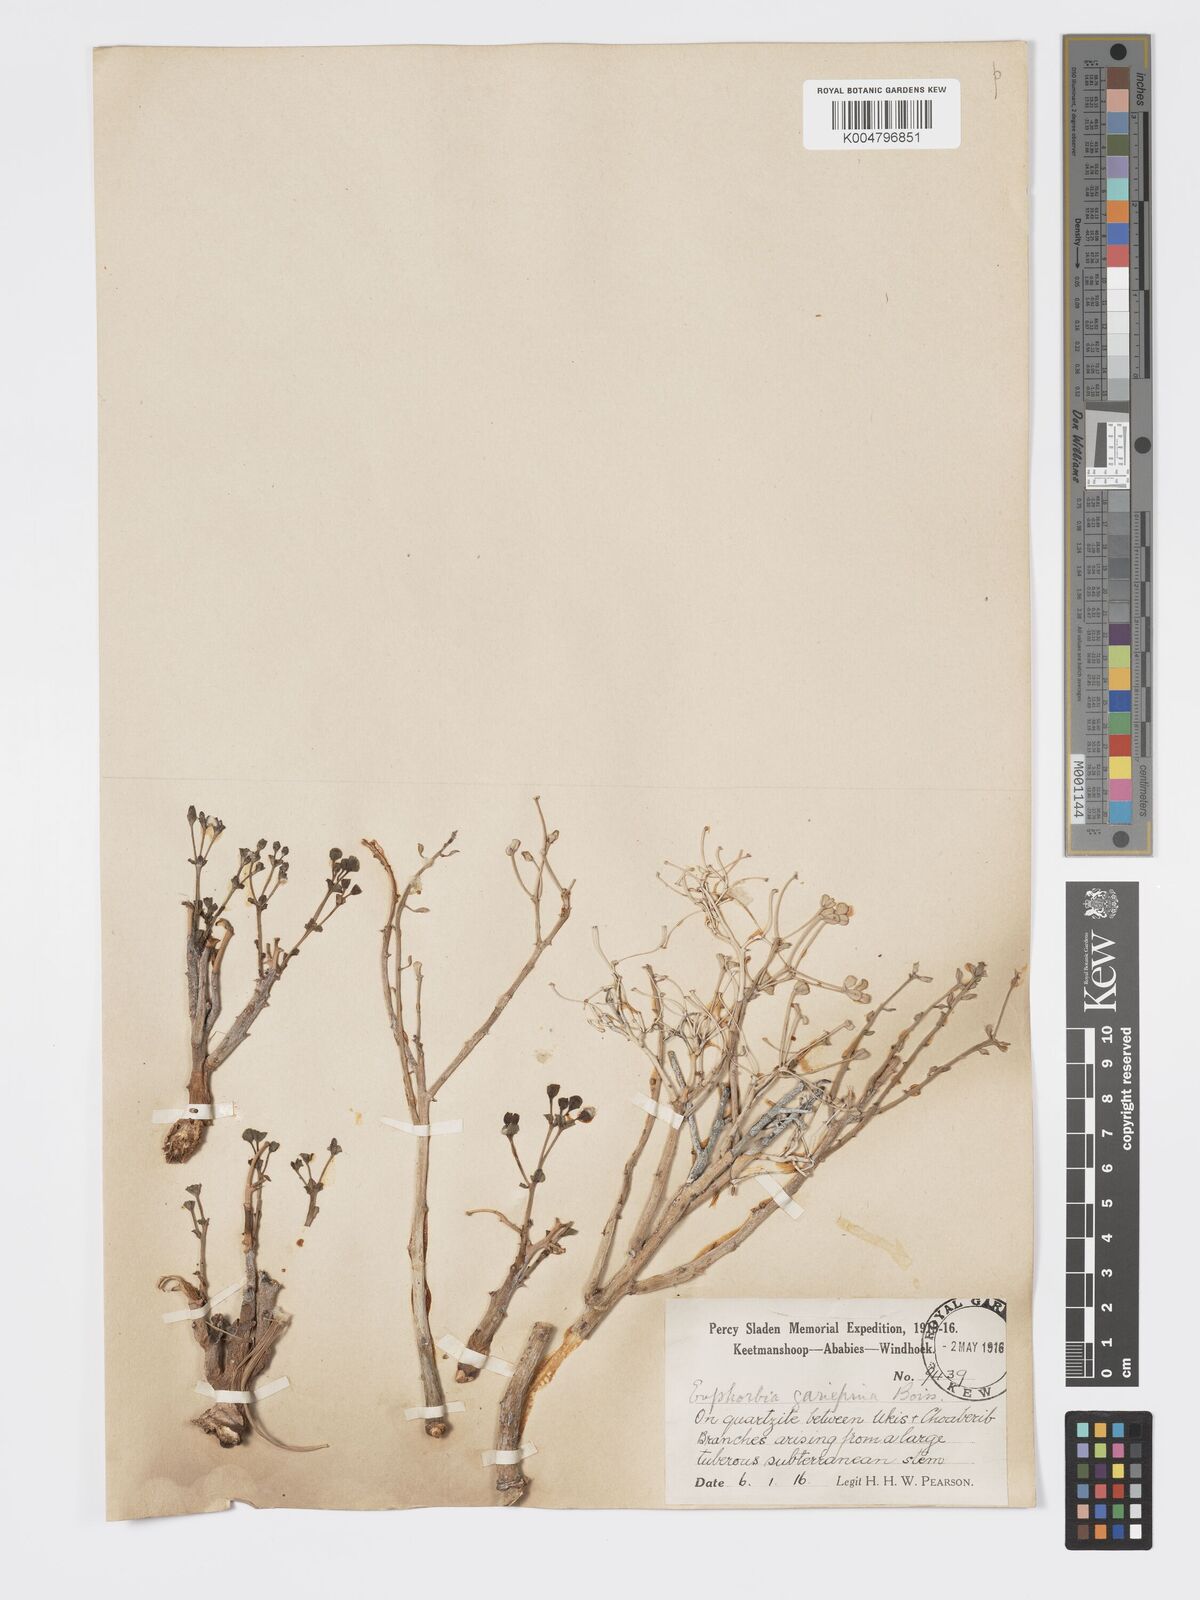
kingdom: Plantae
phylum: Tracheophyta
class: Magnoliopsida
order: Malpighiales
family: Euphorbiaceae
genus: Euphorbia
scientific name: Euphorbia gariepina
